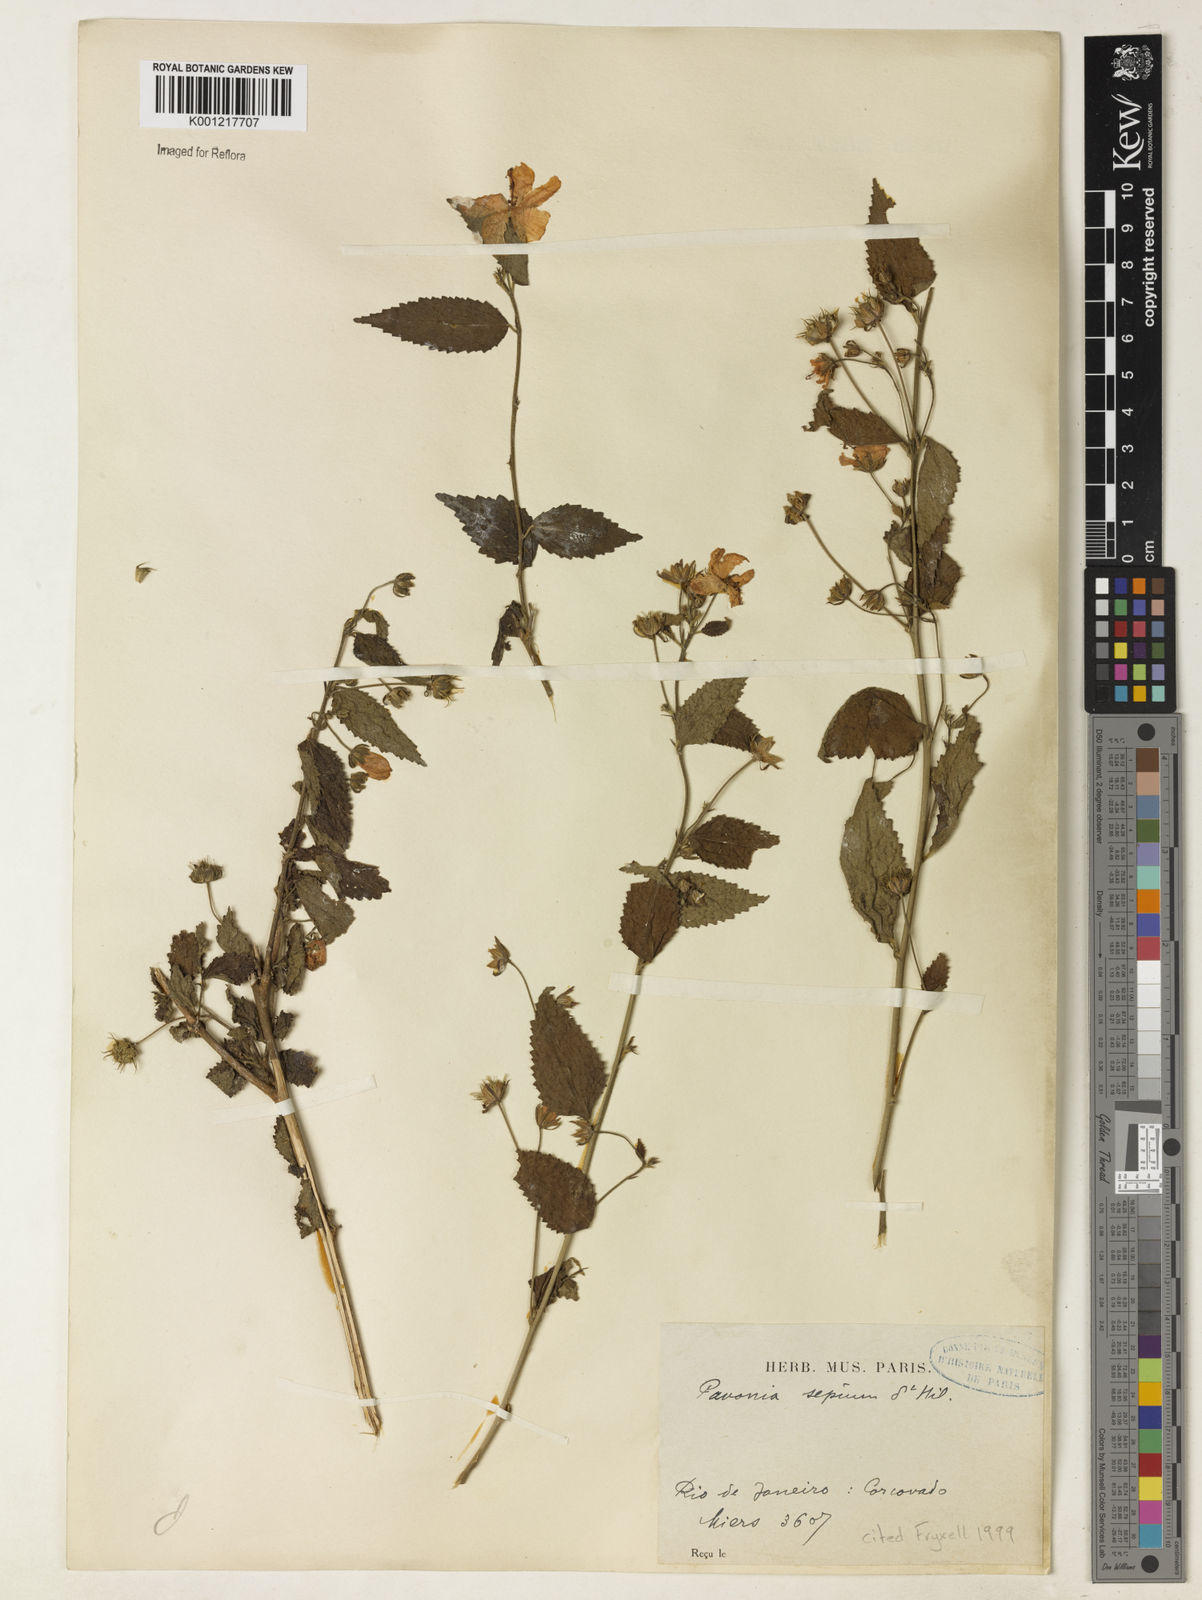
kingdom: Plantae
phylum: Tracheophyta
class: Magnoliopsida
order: Malvales
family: Malvaceae
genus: Pavonia
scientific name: Pavonia sepium
